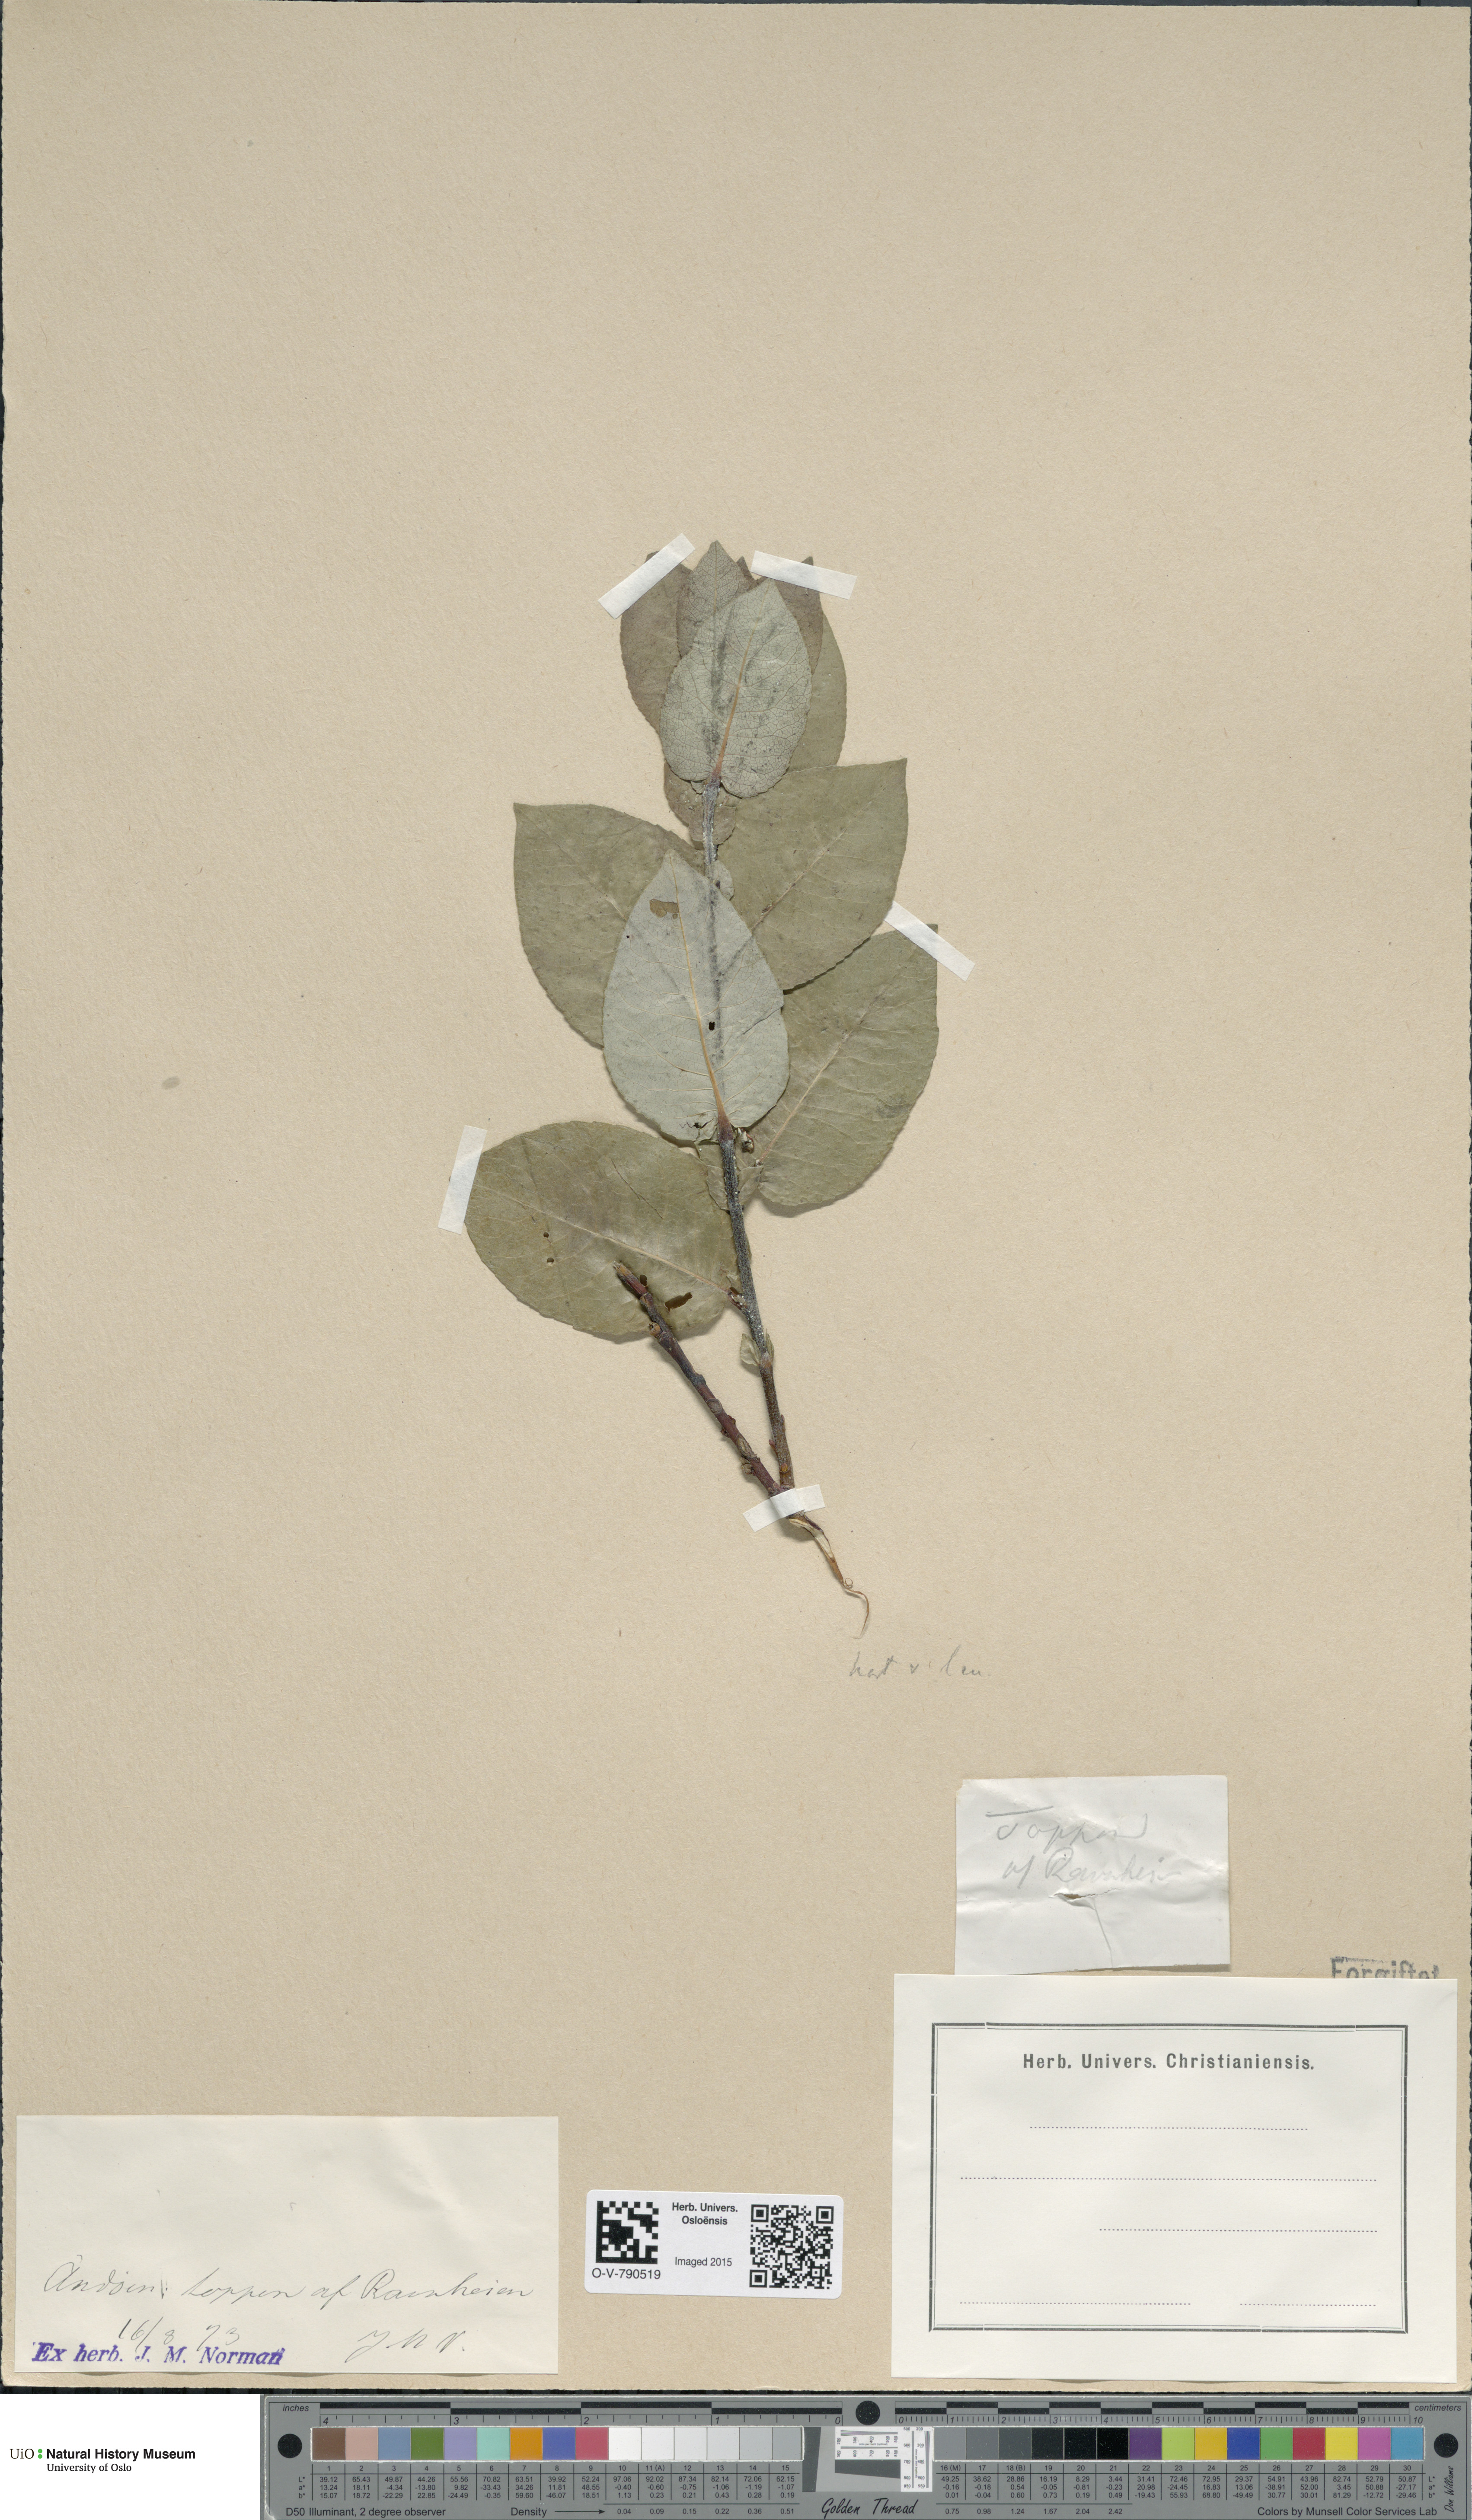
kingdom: Plantae
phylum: Tracheophyta
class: Magnoliopsida
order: Malpighiales
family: Salicaceae
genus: Salix
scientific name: Salix hastata
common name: Halberd willow
